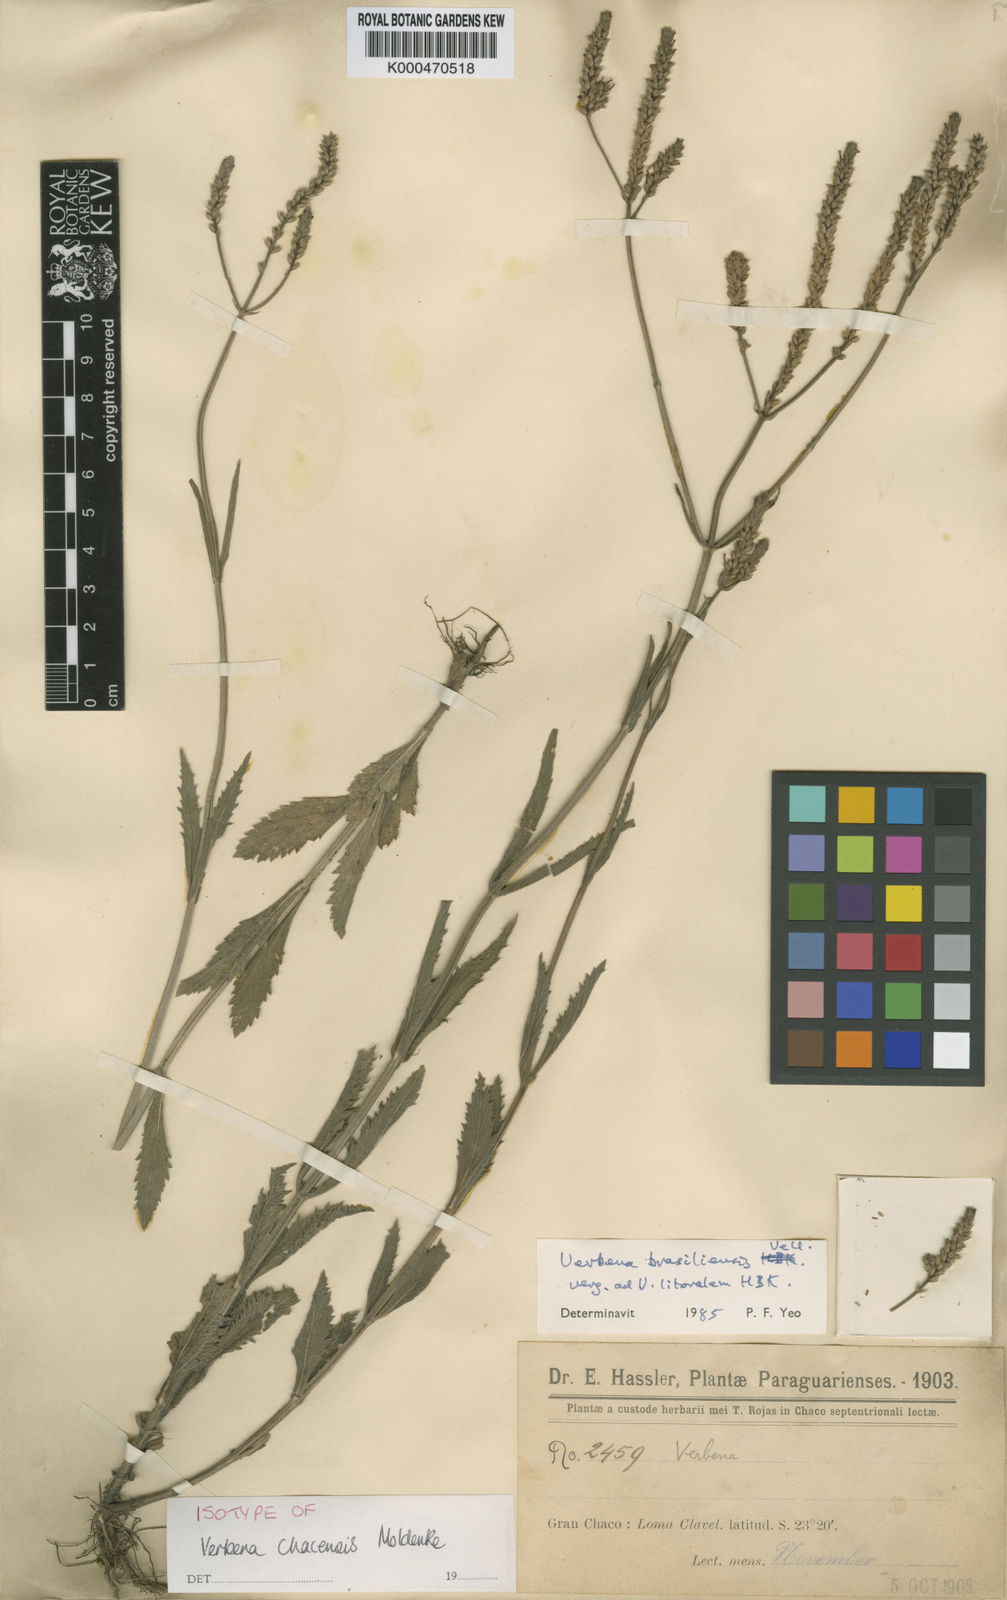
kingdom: Plantae
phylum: Tracheophyta
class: Magnoliopsida
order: Lamiales
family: Verbenaceae
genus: Verbena
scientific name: Verbena brasiliensis
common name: Brazilian vervain
